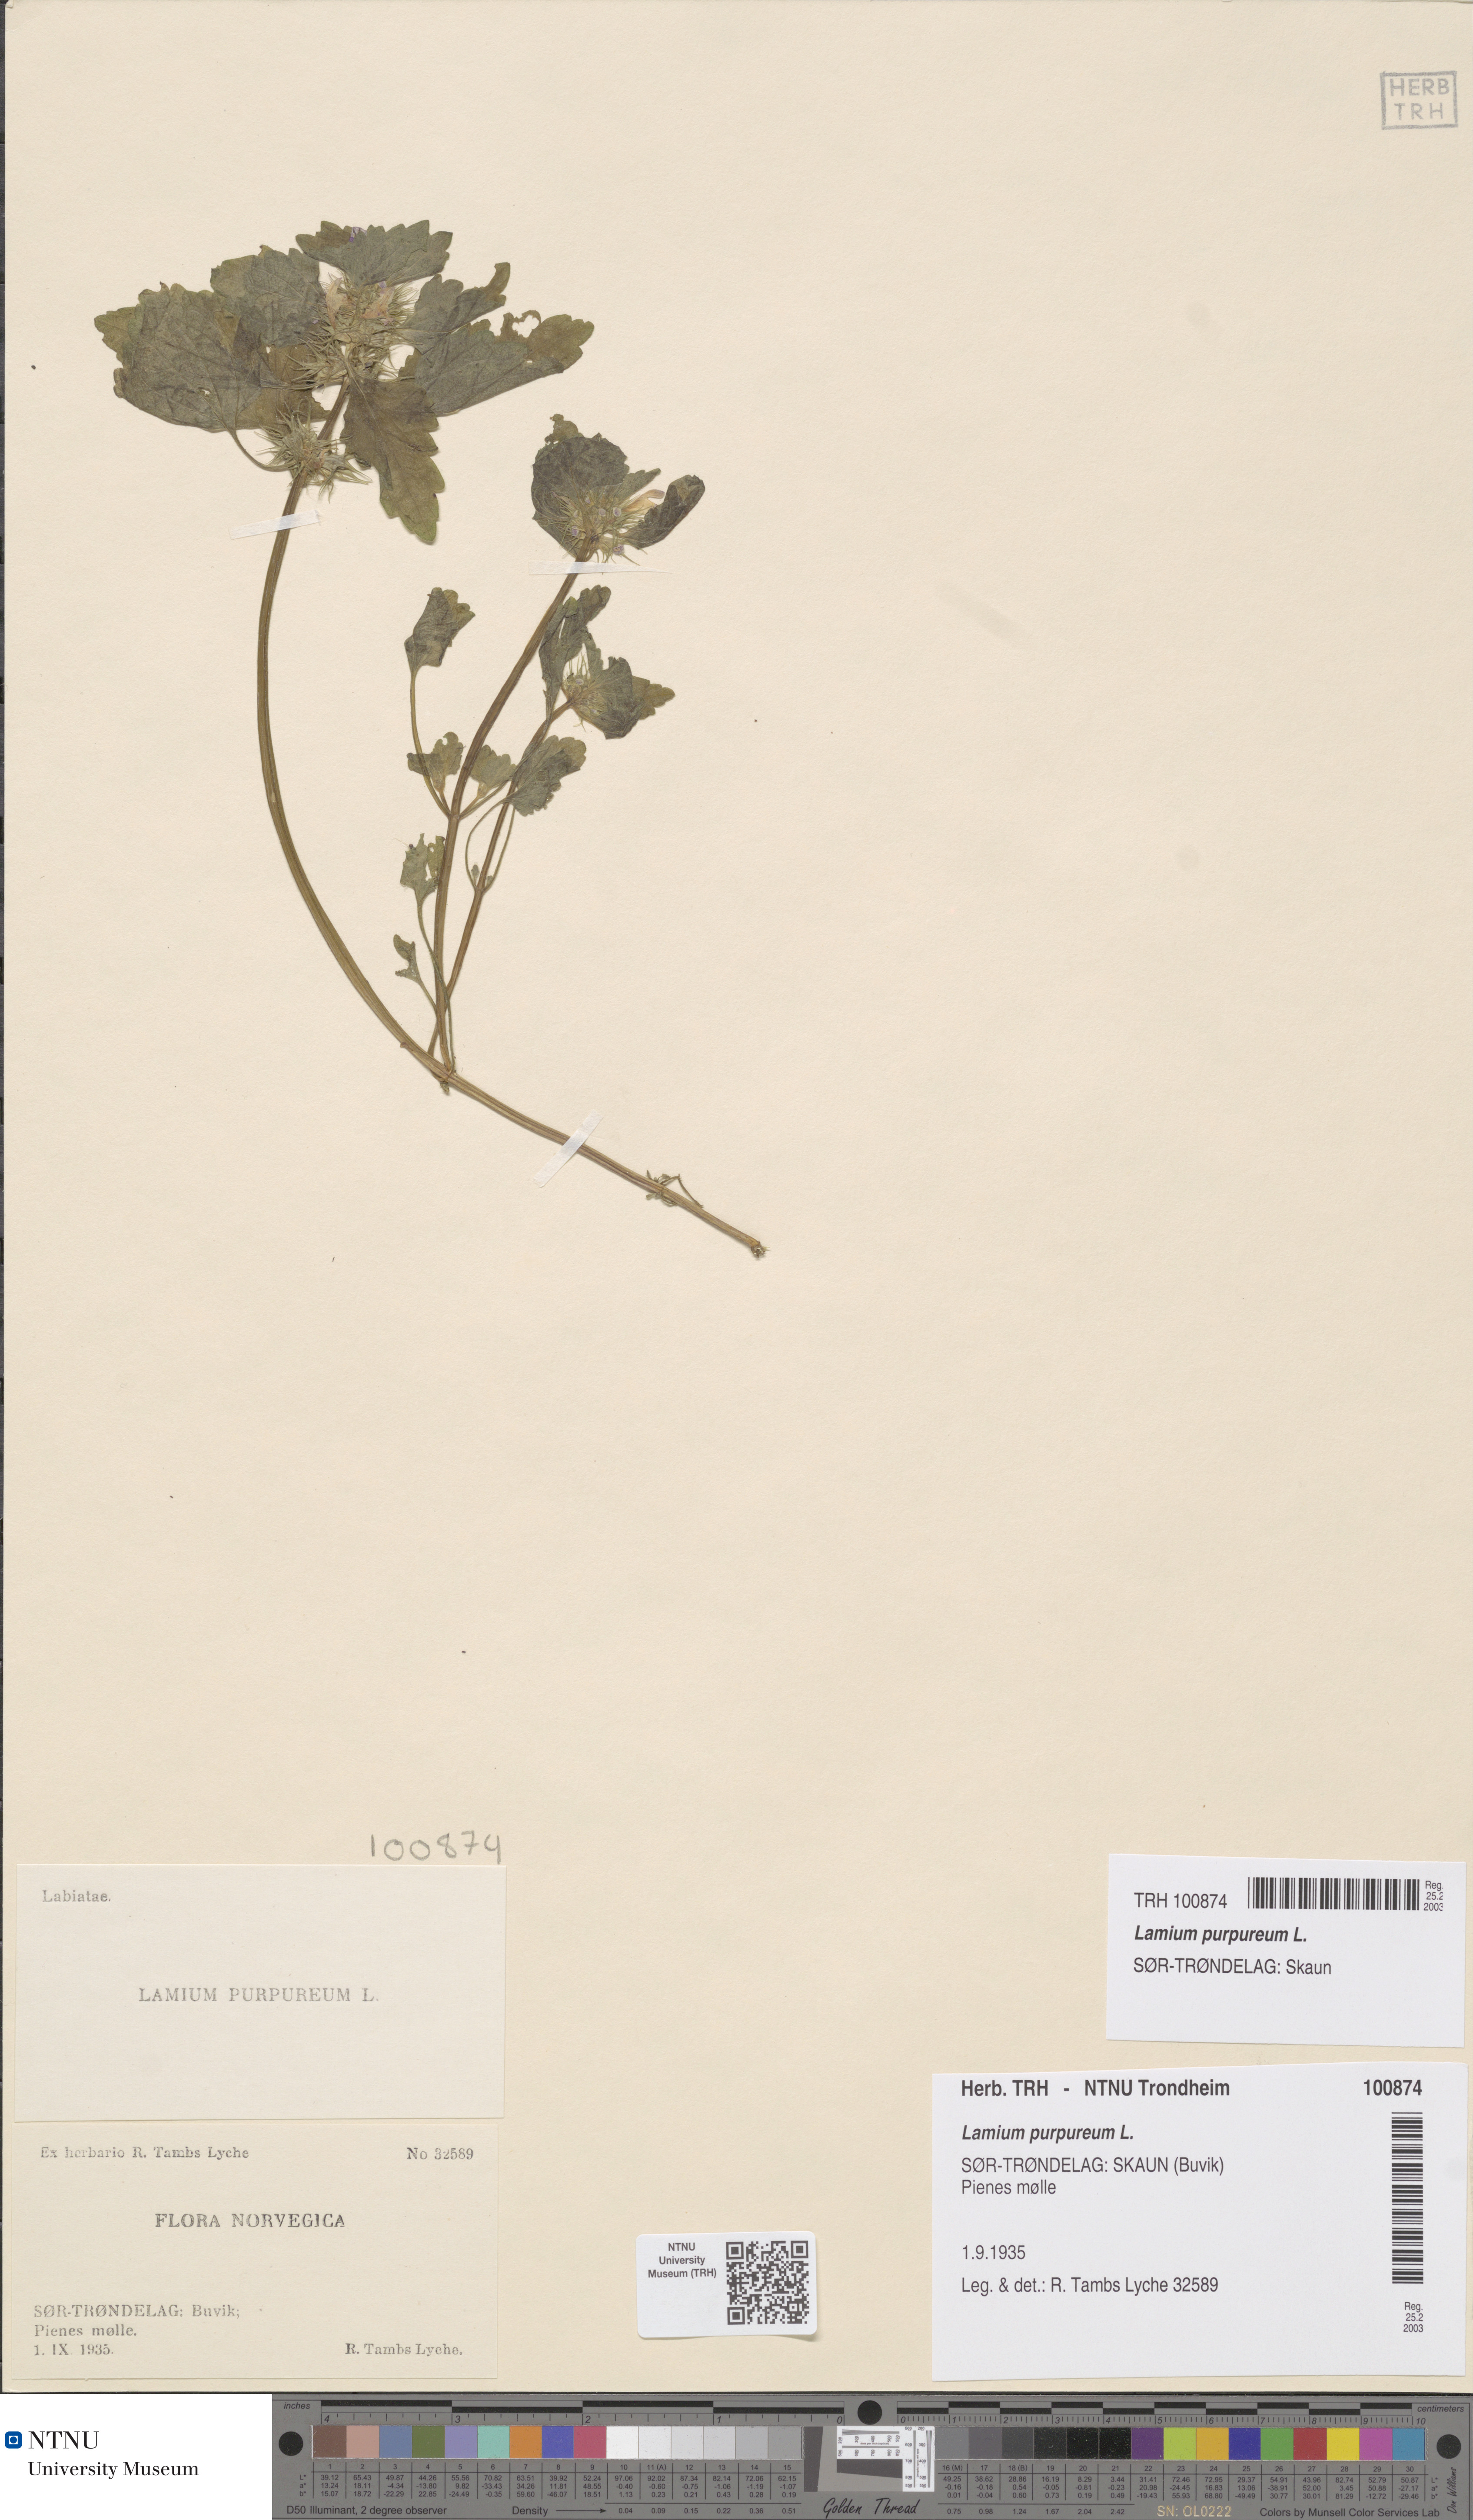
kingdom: Plantae
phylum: Tracheophyta
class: Magnoliopsida
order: Lamiales
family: Lamiaceae
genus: Lamium
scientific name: Lamium purpureum
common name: Red dead-nettle
